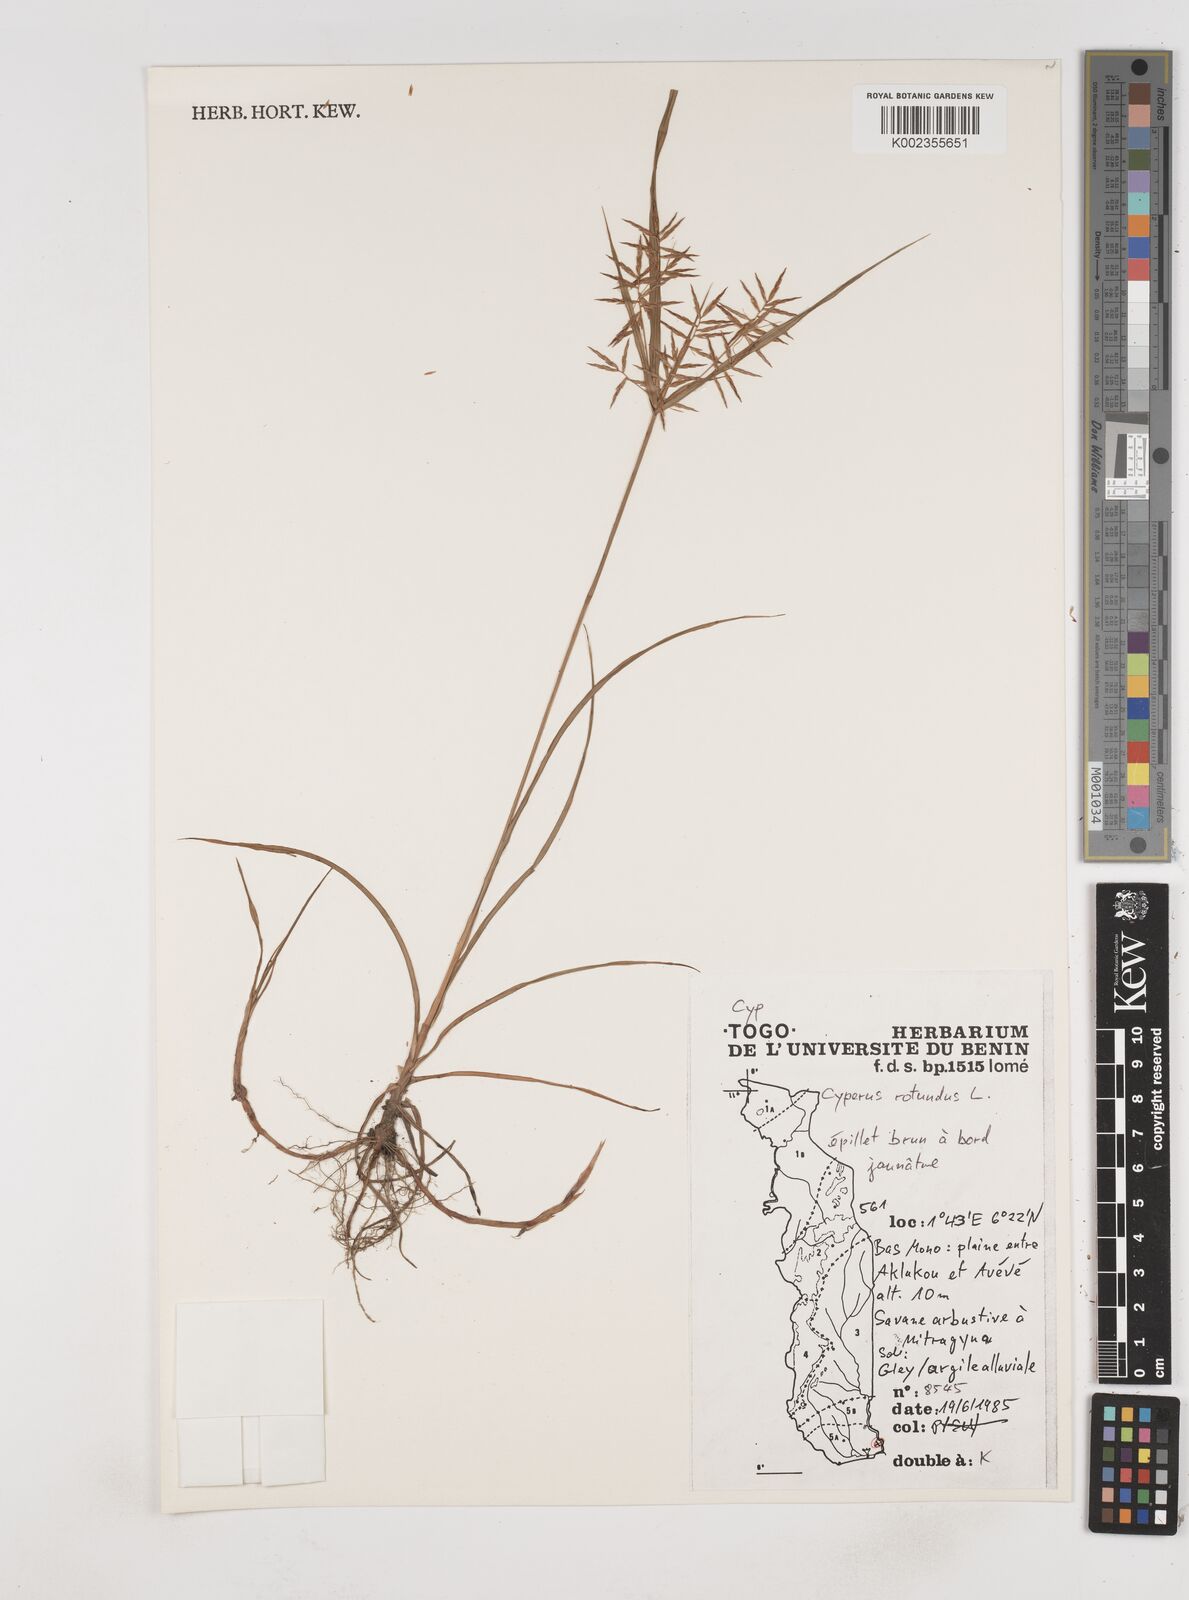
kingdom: Plantae
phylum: Tracheophyta
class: Liliopsida
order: Poales
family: Cyperaceae
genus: Cyperus
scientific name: Cyperus
